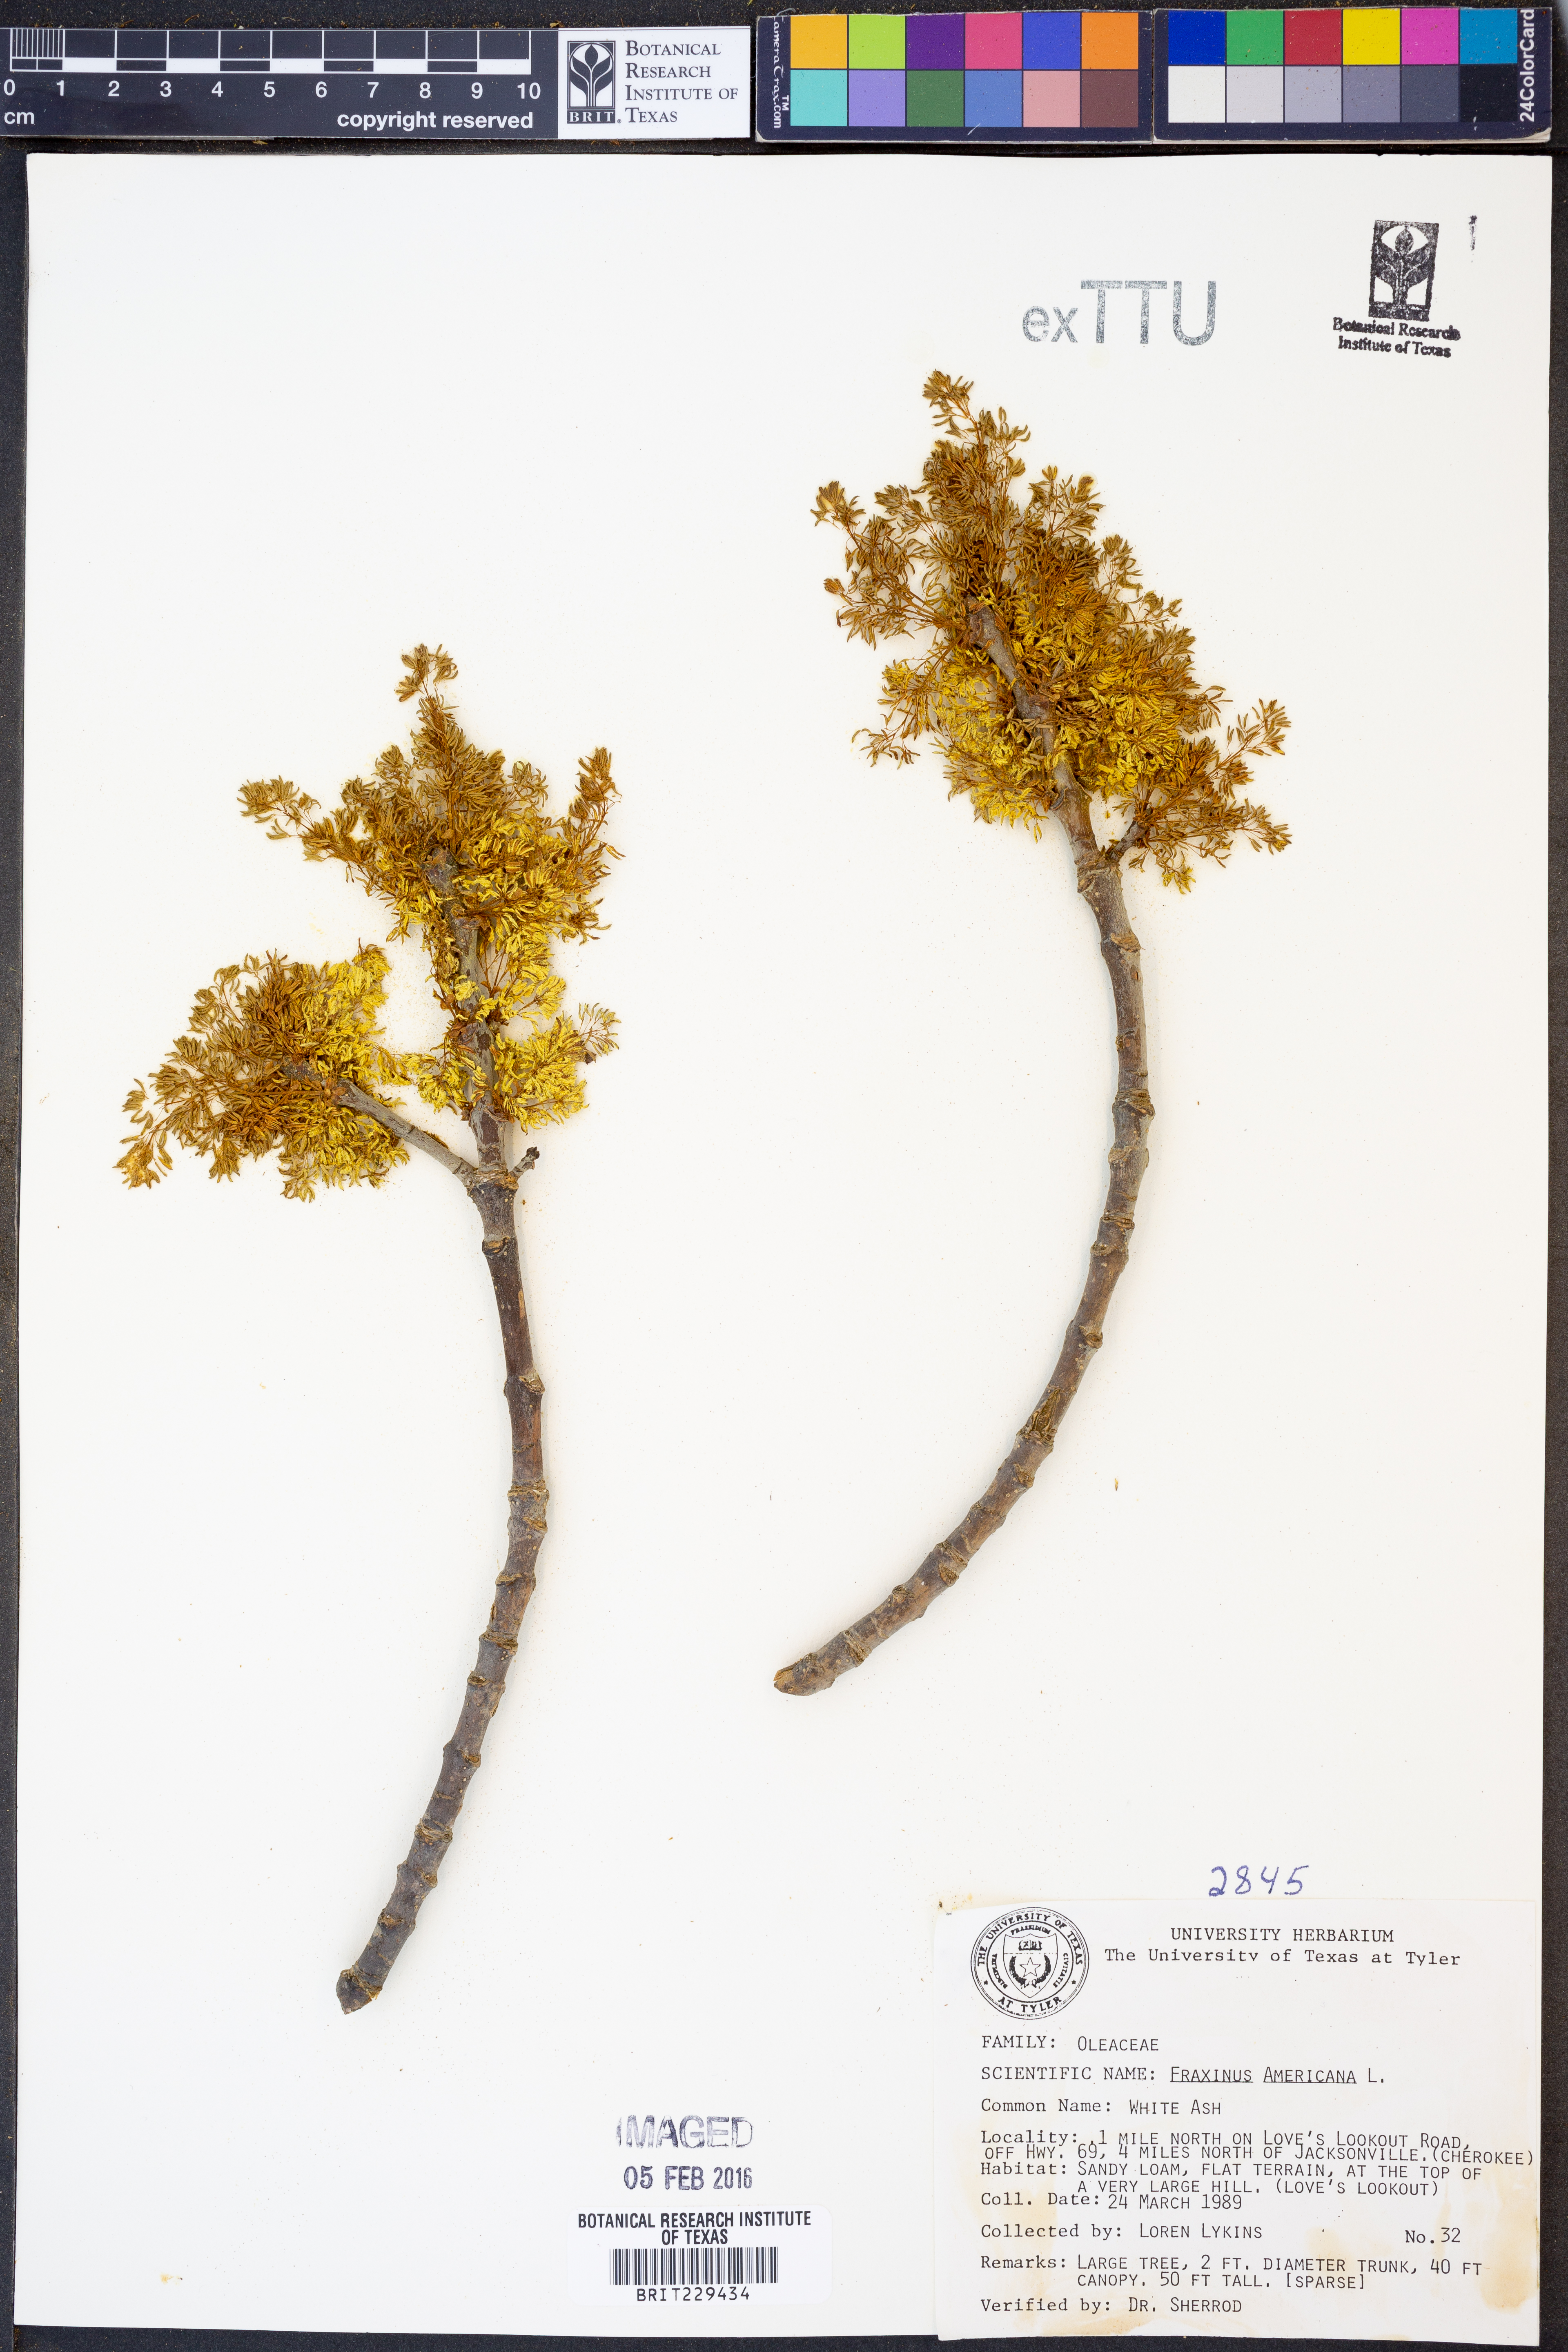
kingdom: Plantae
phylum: Tracheophyta
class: Magnoliopsida
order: Lamiales
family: Oleaceae
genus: Fraxinus
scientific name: Fraxinus americana
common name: White ash
